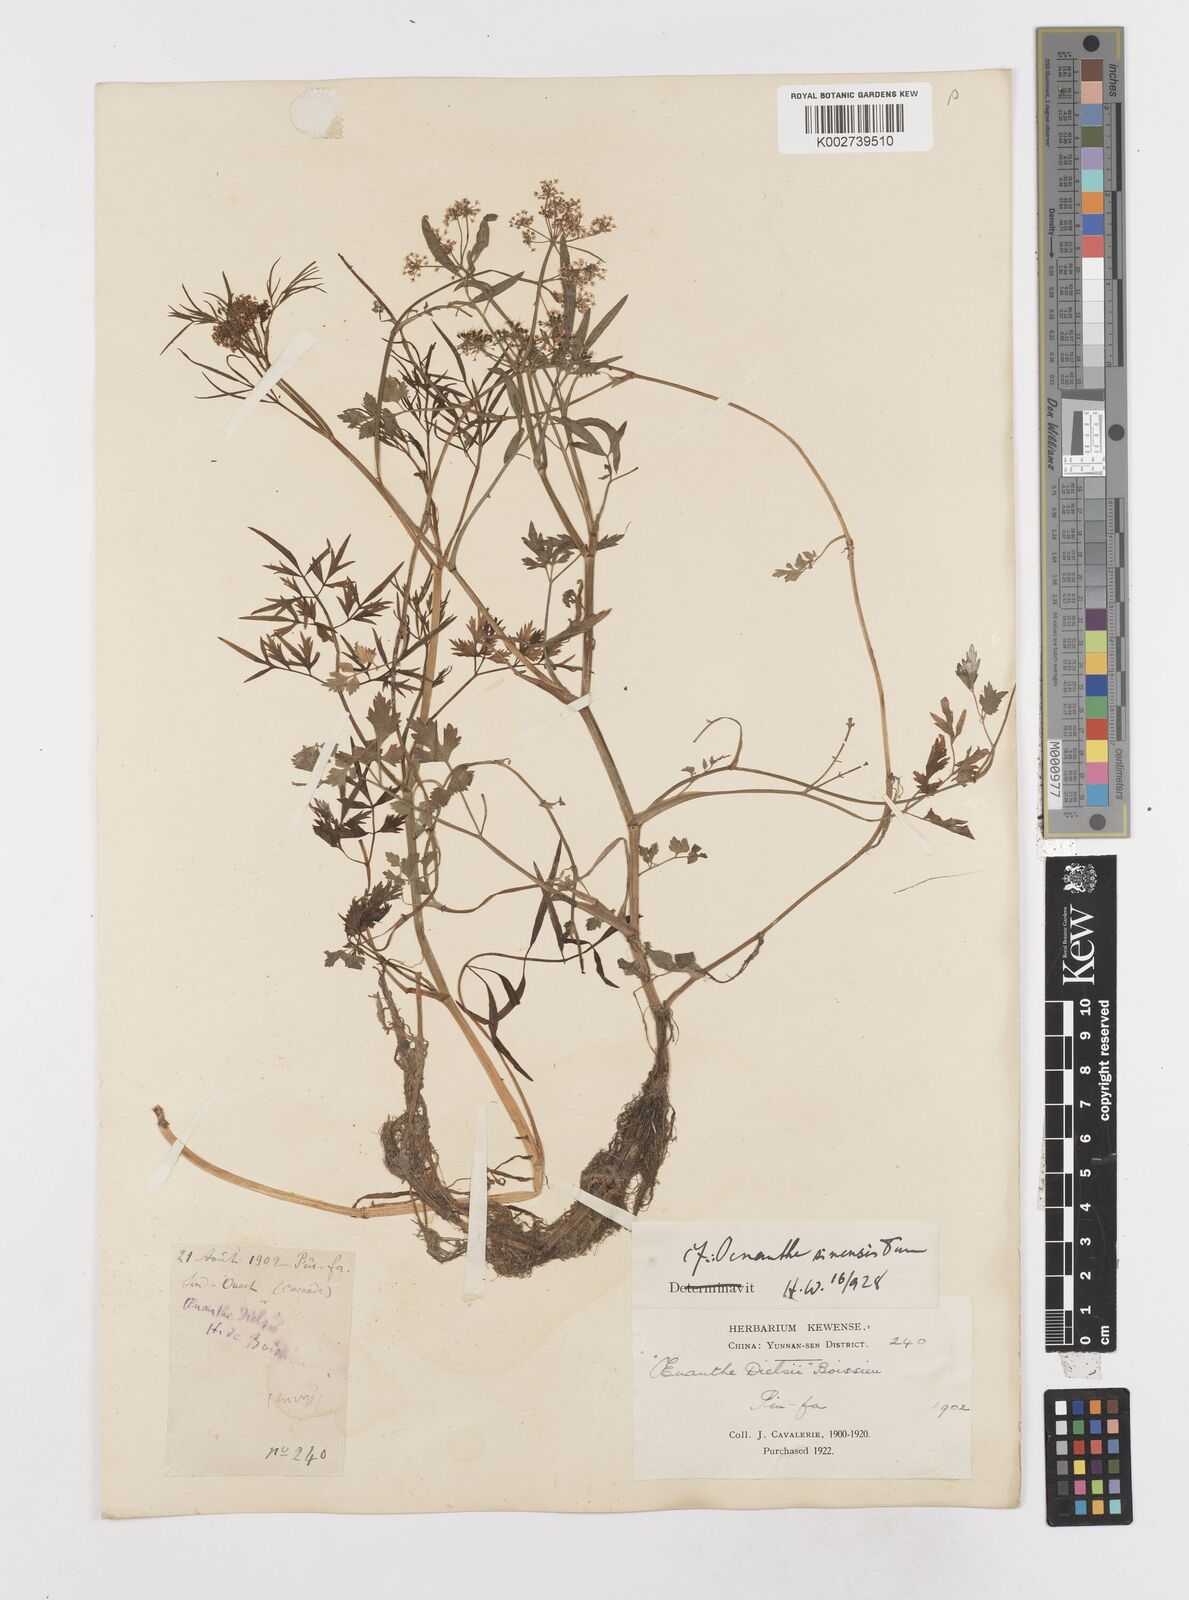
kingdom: Plantae
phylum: Tracheophyta
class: Magnoliopsida
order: Apiales
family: Apiaceae
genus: Oenanthe
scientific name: Oenanthe linearis
